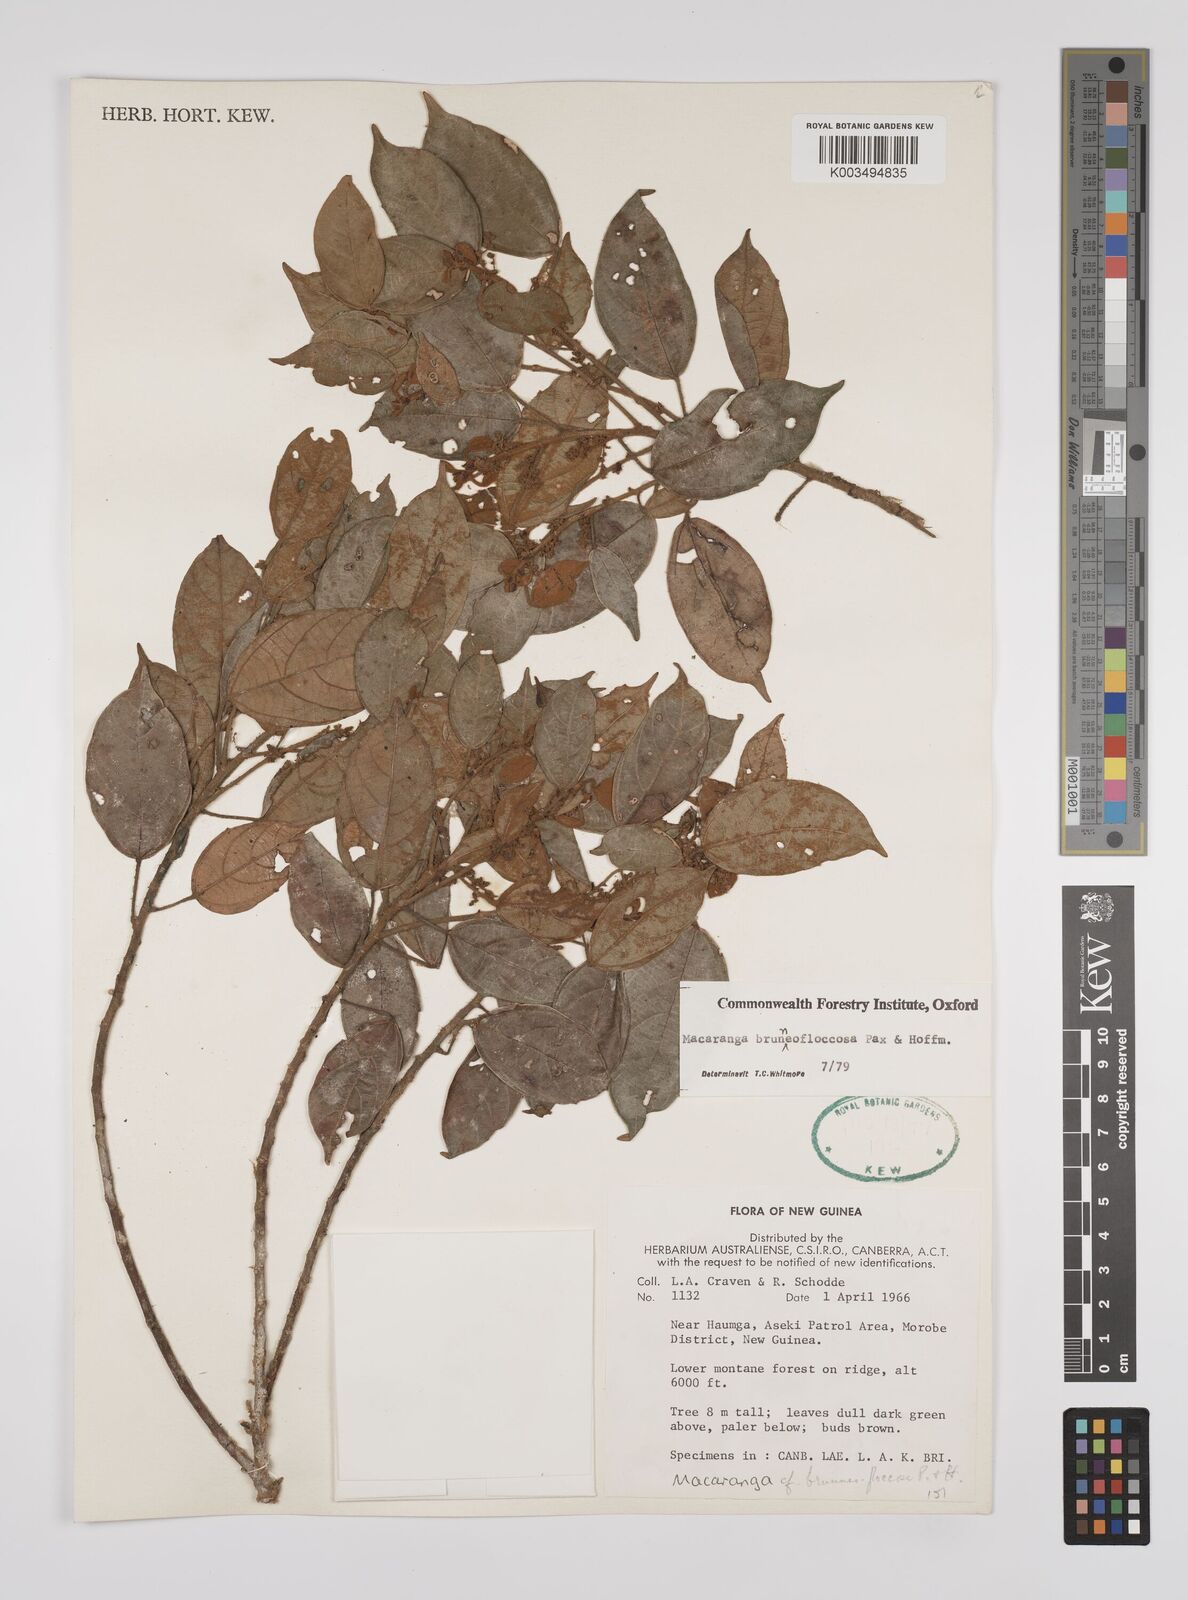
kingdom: Plantae
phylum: Tracheophyta
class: Magnoliopsida
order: Malpighiales
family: Euphorbiaceae
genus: Macaranga
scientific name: Macaranga brunneofloccosa
